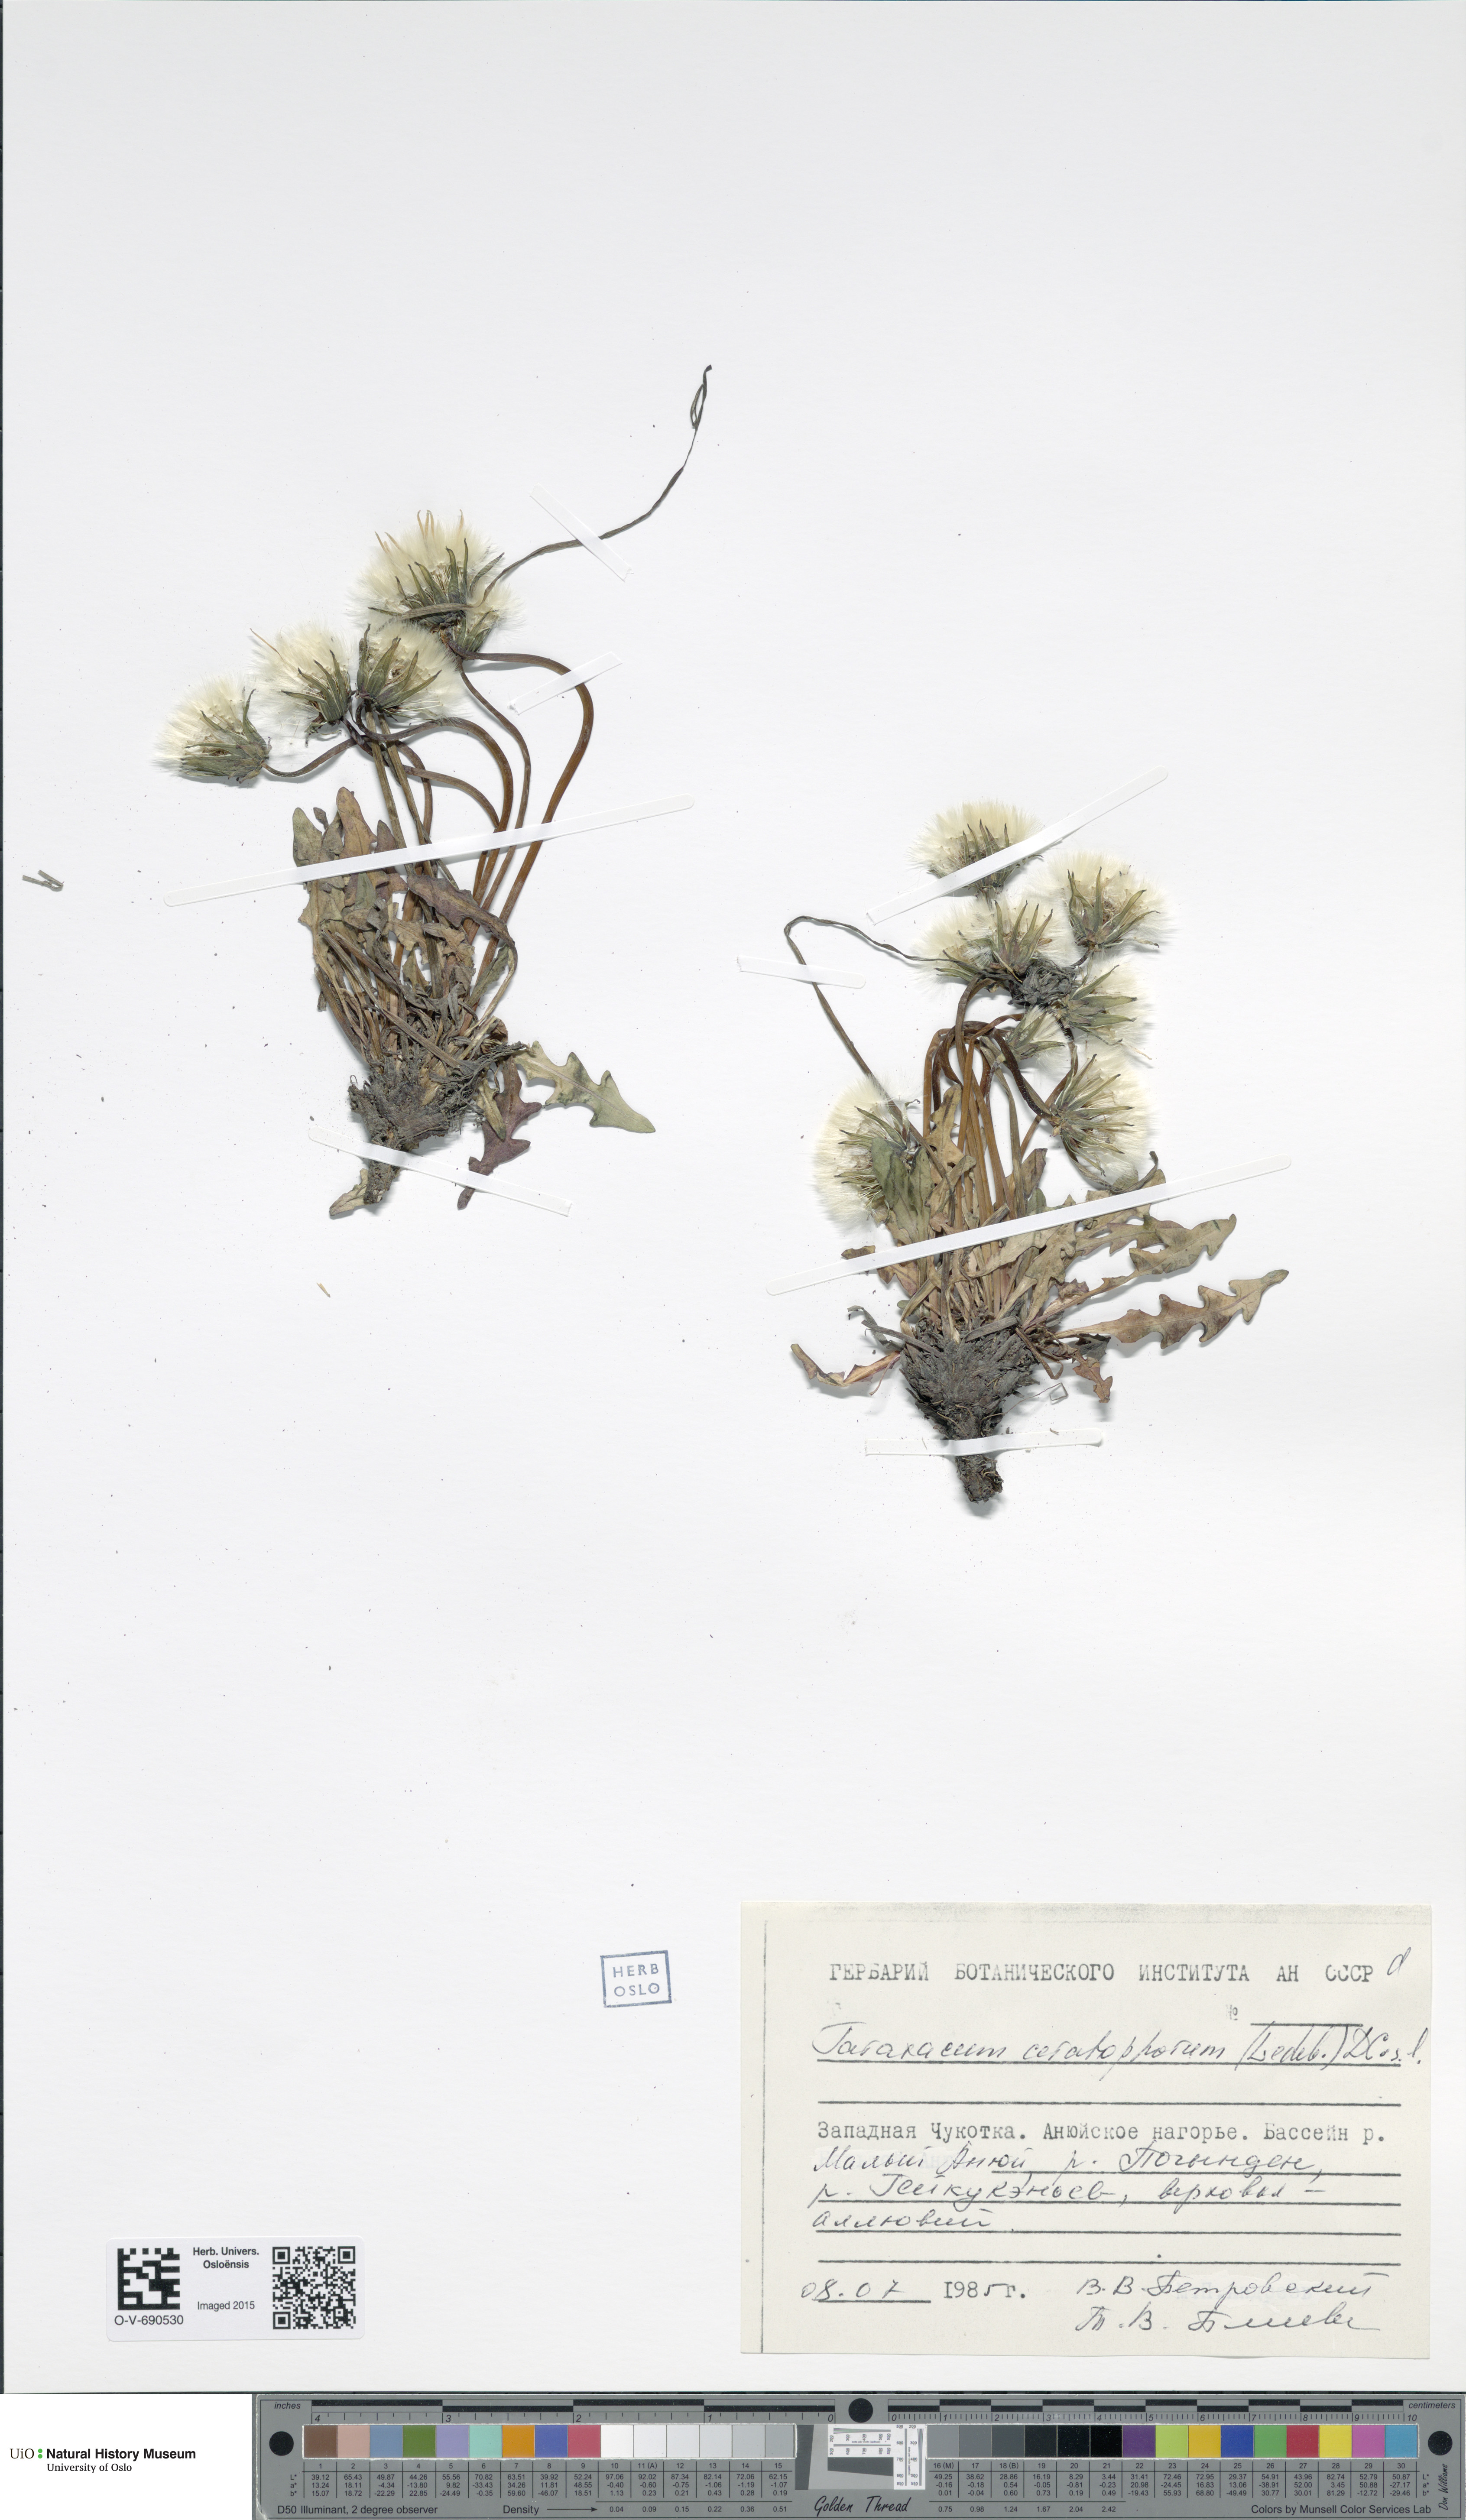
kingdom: Plantae
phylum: Tracheophyta
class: Magnoliopsida
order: Asterales
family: Asteraceae
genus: Taraxacum
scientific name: Taraxacum ceratophorum
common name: Horn-bearing dandelion
